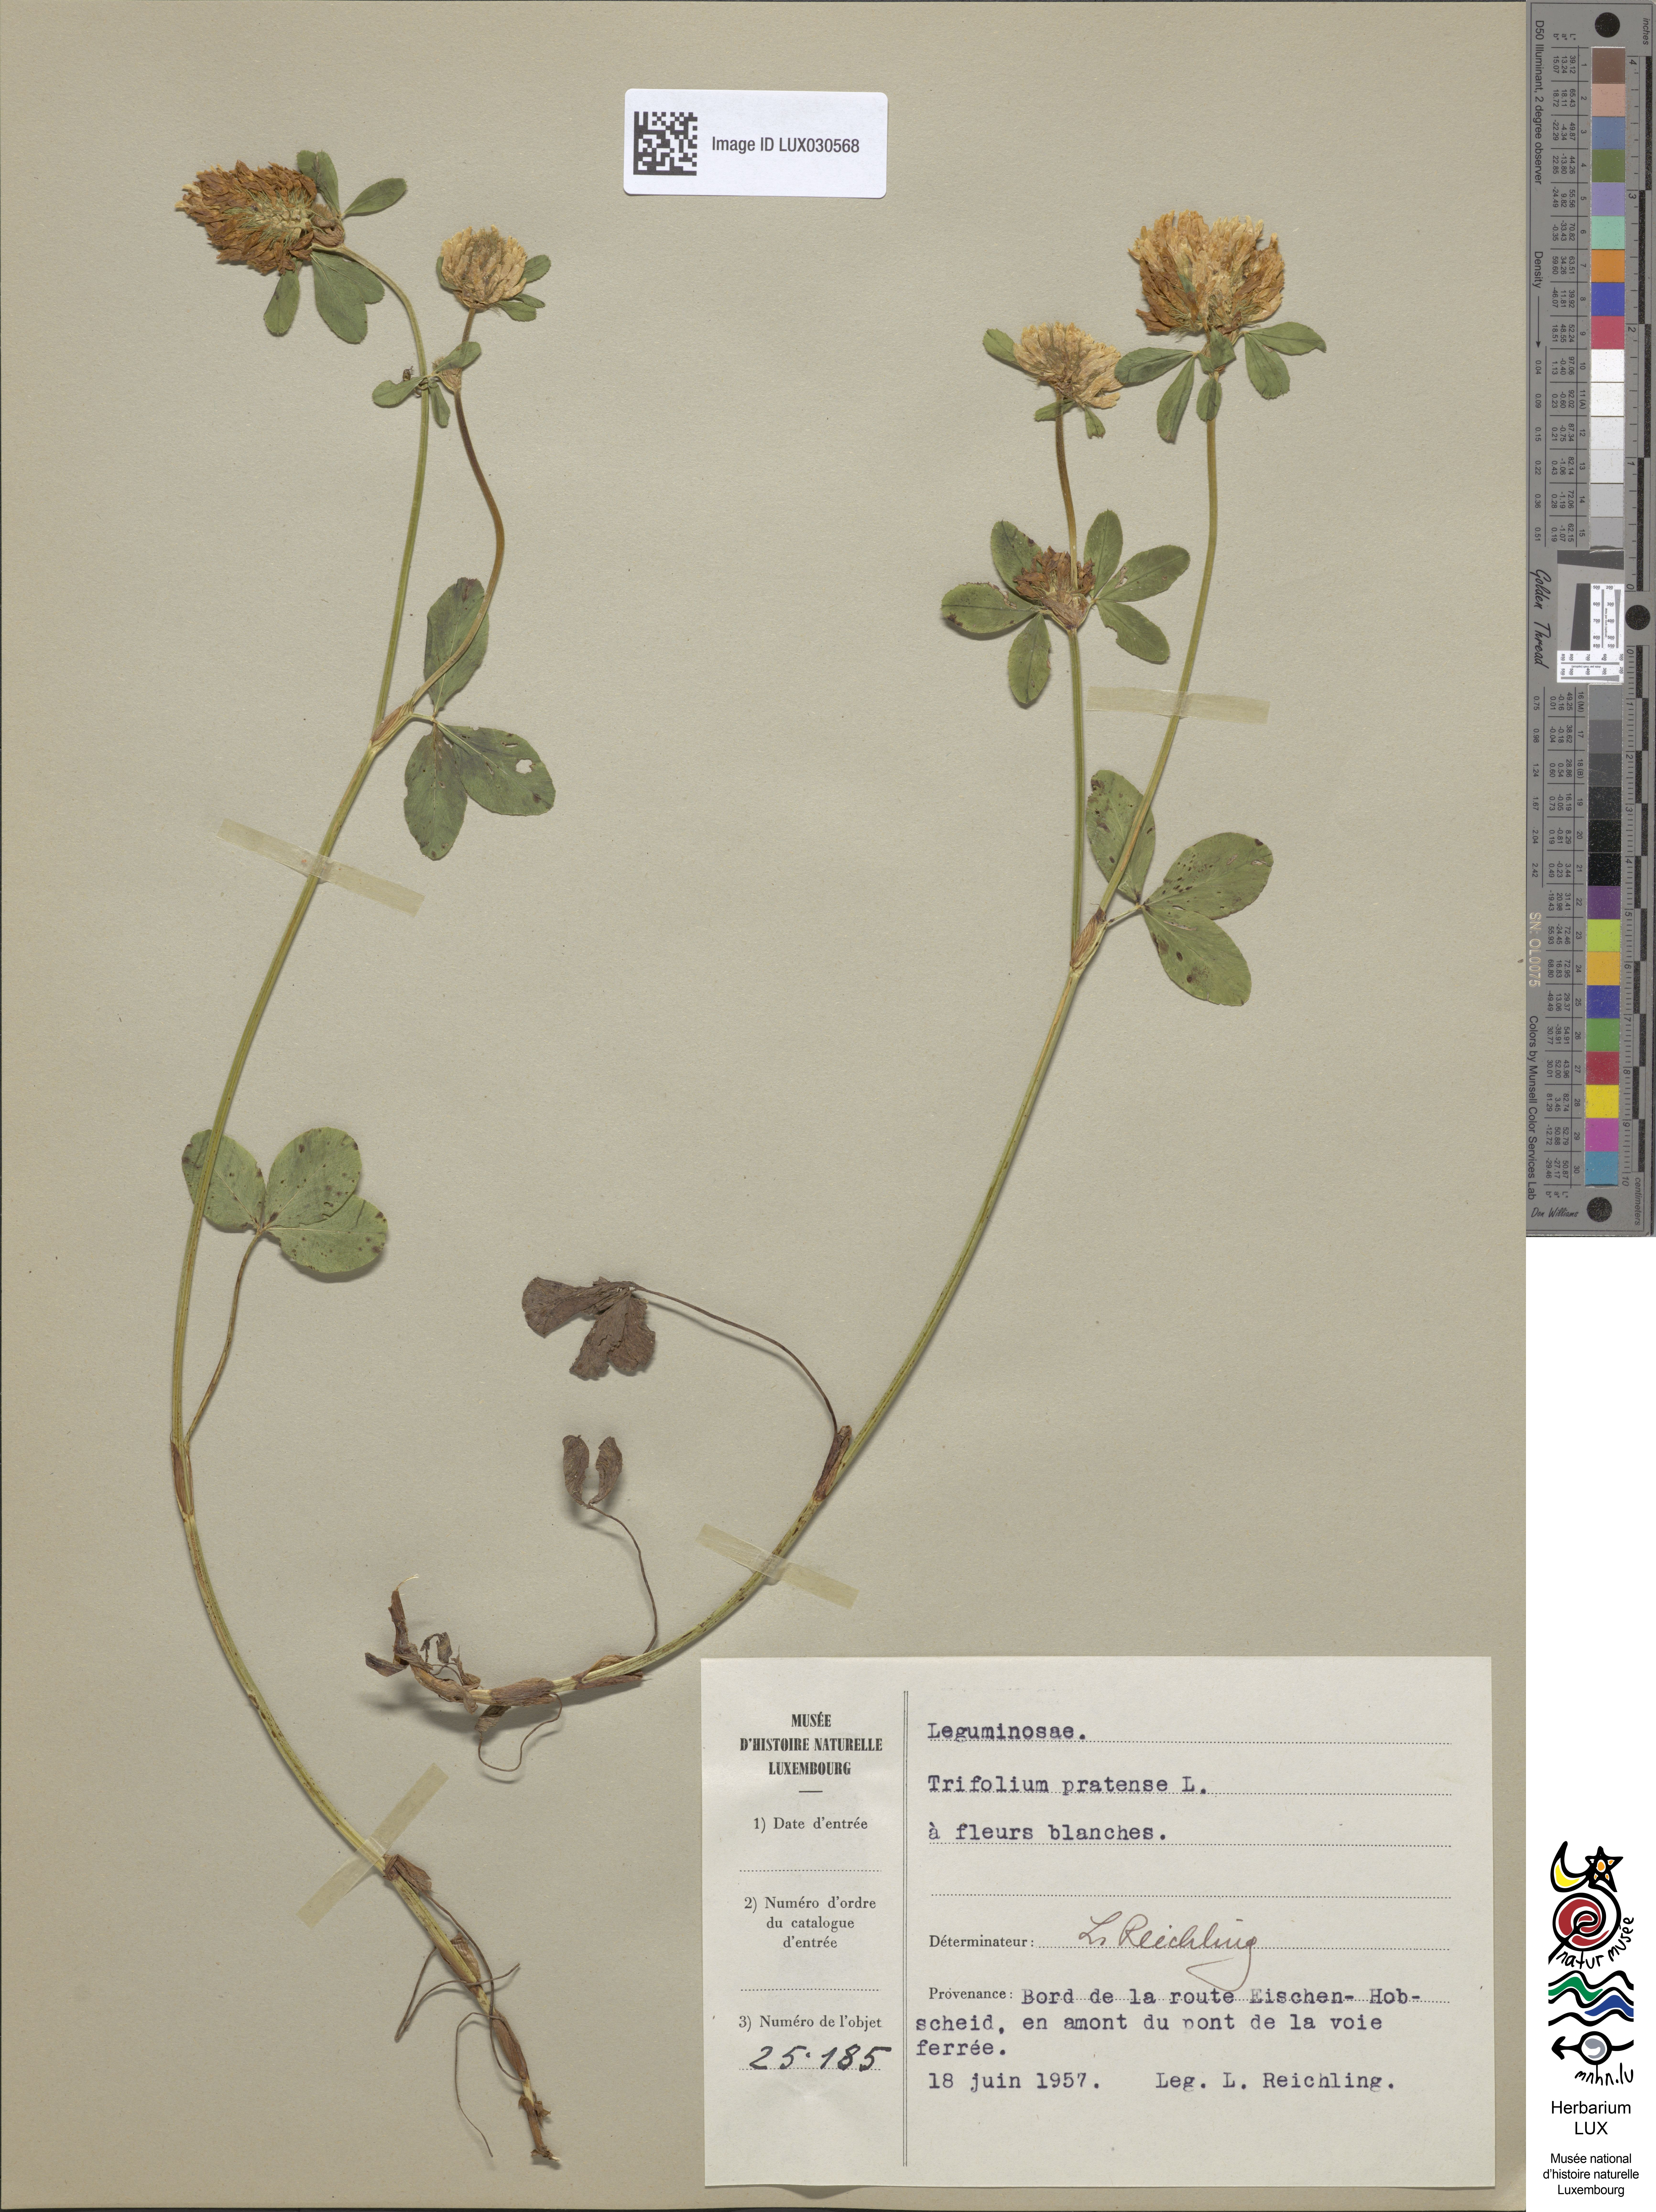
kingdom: Plantae
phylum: Tracheophyta
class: Magnoliopsida
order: Fabales
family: Fabaceae
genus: Trifolium
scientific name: Trifolium pratense
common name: Red clover
